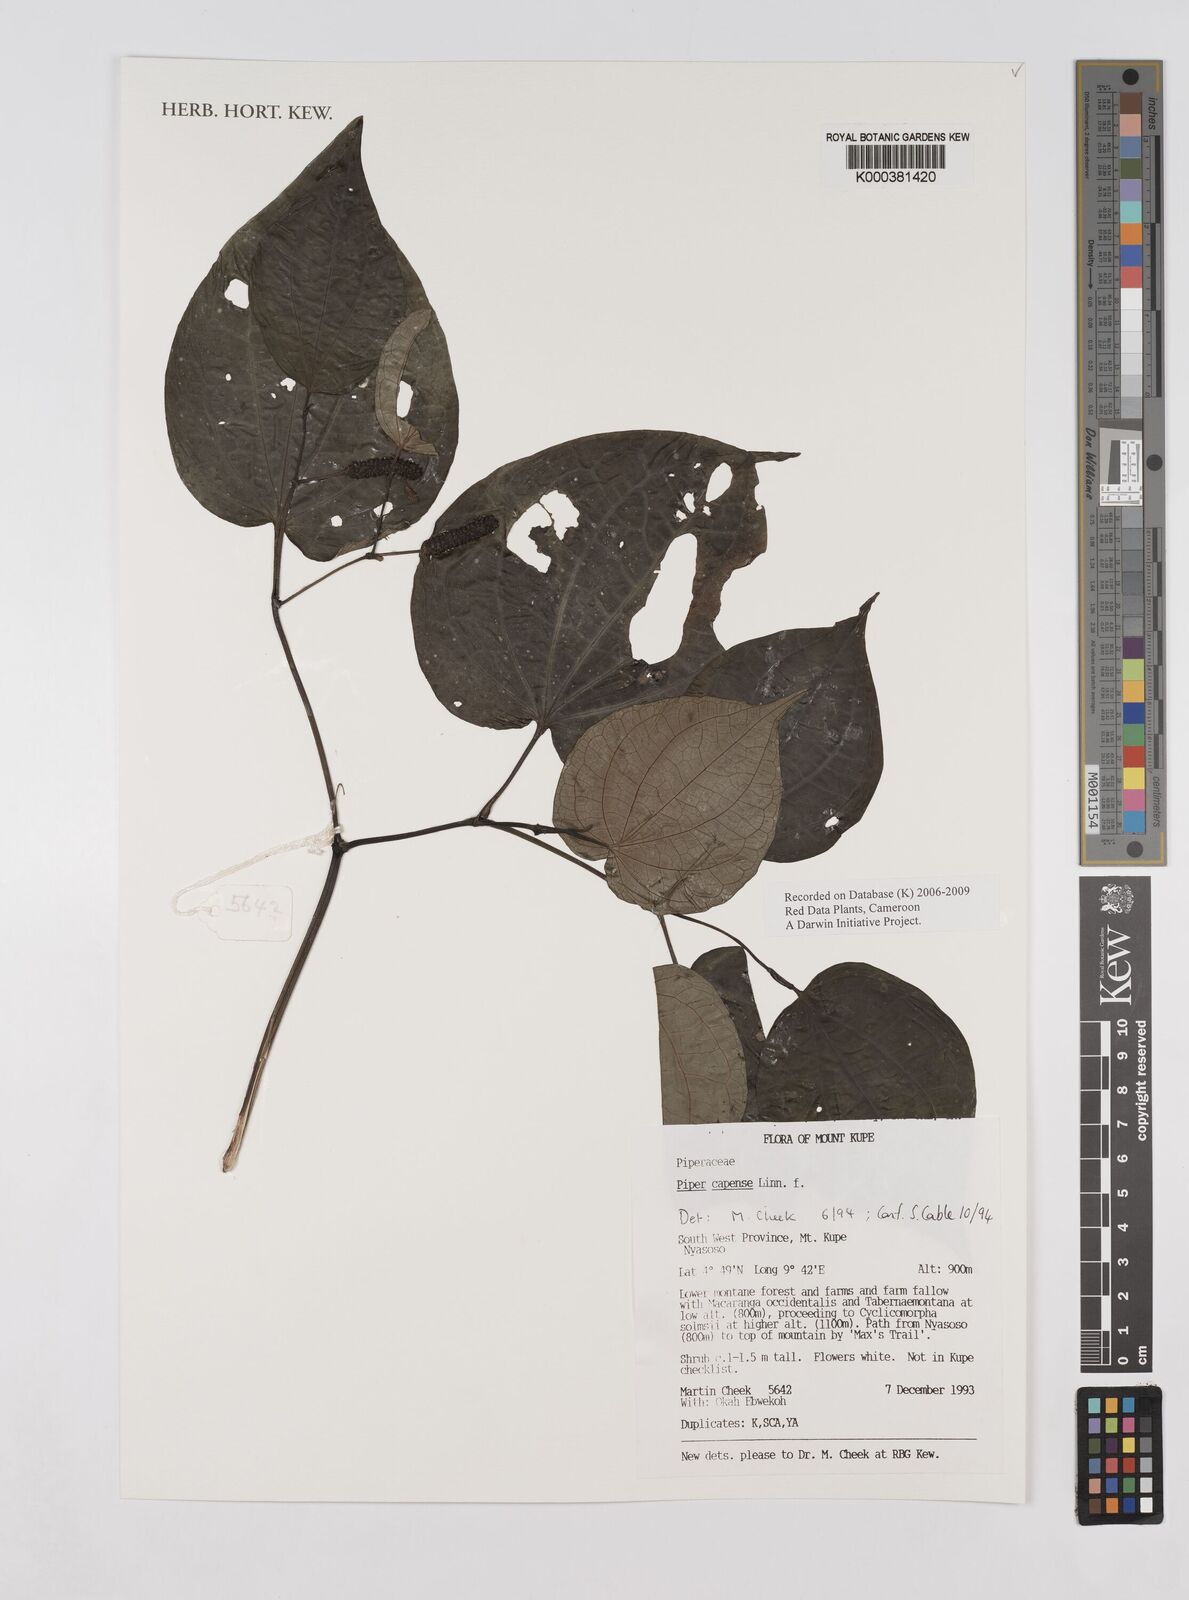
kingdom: Plantae
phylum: Tracheophyta
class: Magnoliopsida
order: Piperales
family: Piperaceae
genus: Piper
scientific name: Piper capense
